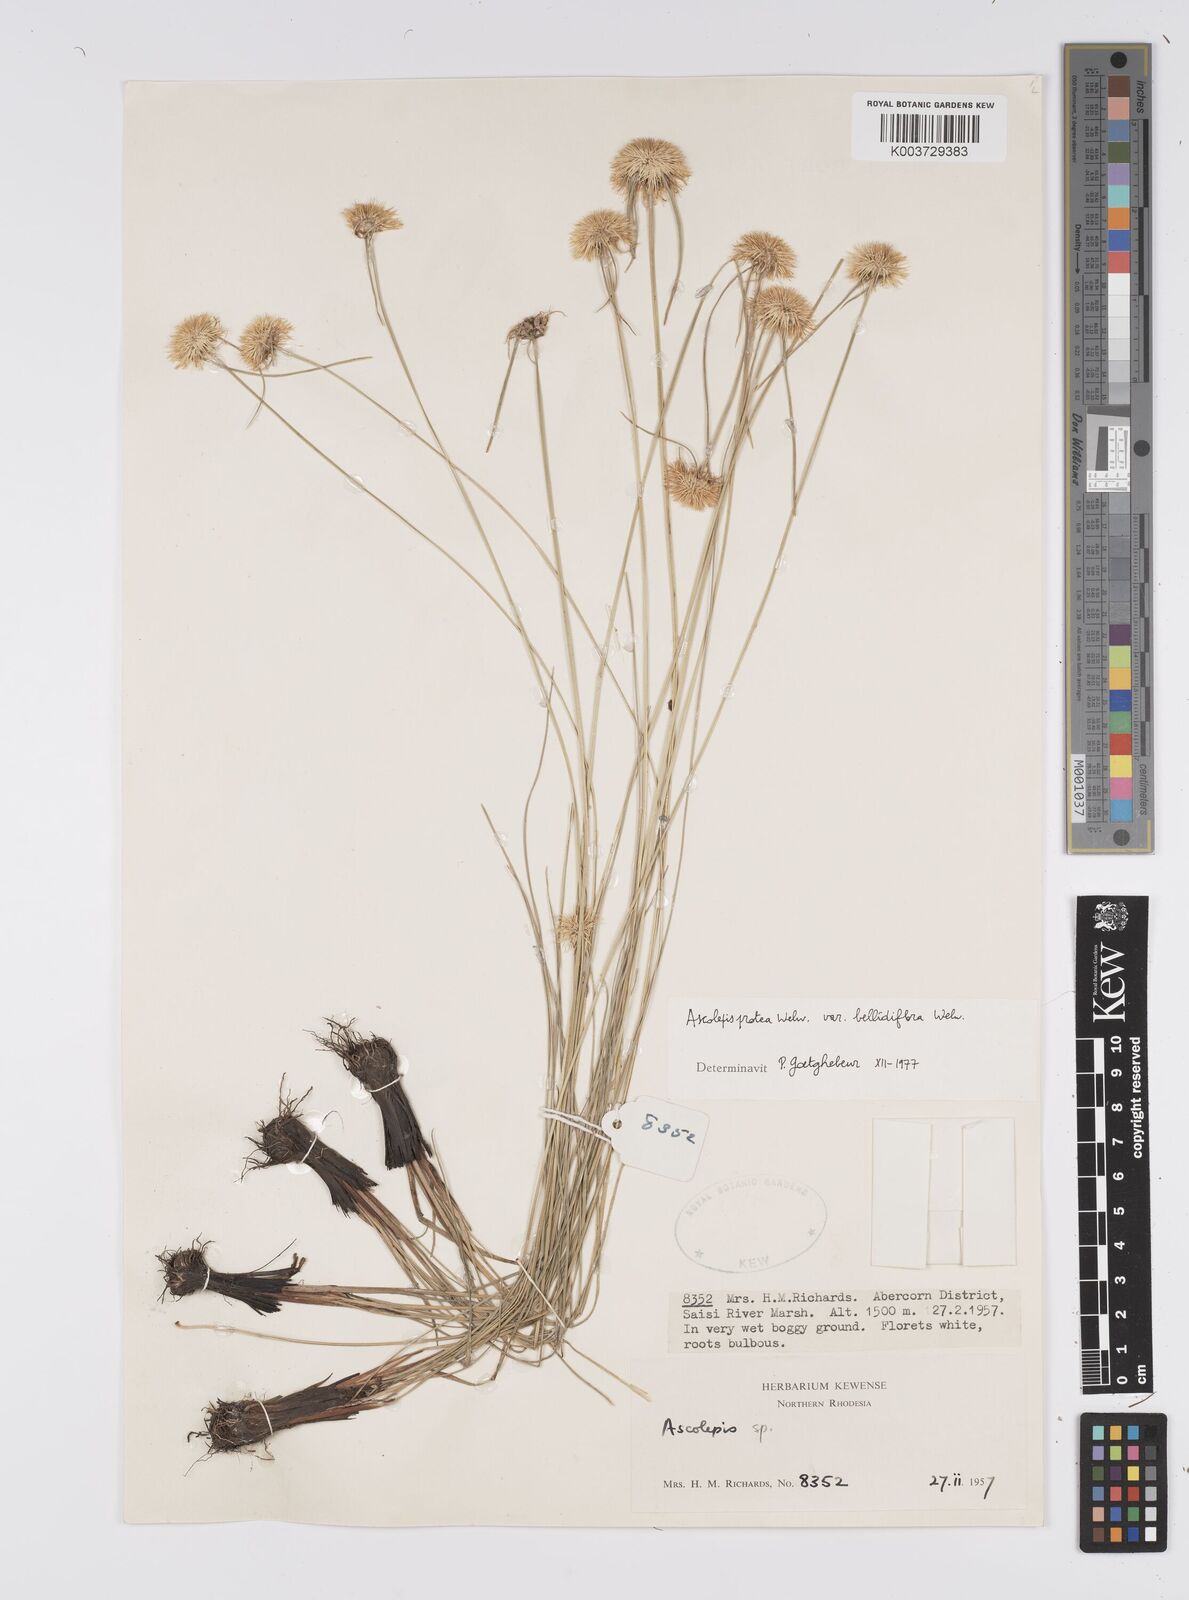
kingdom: Plantae
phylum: Tracheophyta
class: Liliopsida
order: Poales
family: Cyperaceae
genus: Cyperus
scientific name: Cyperus proteus
